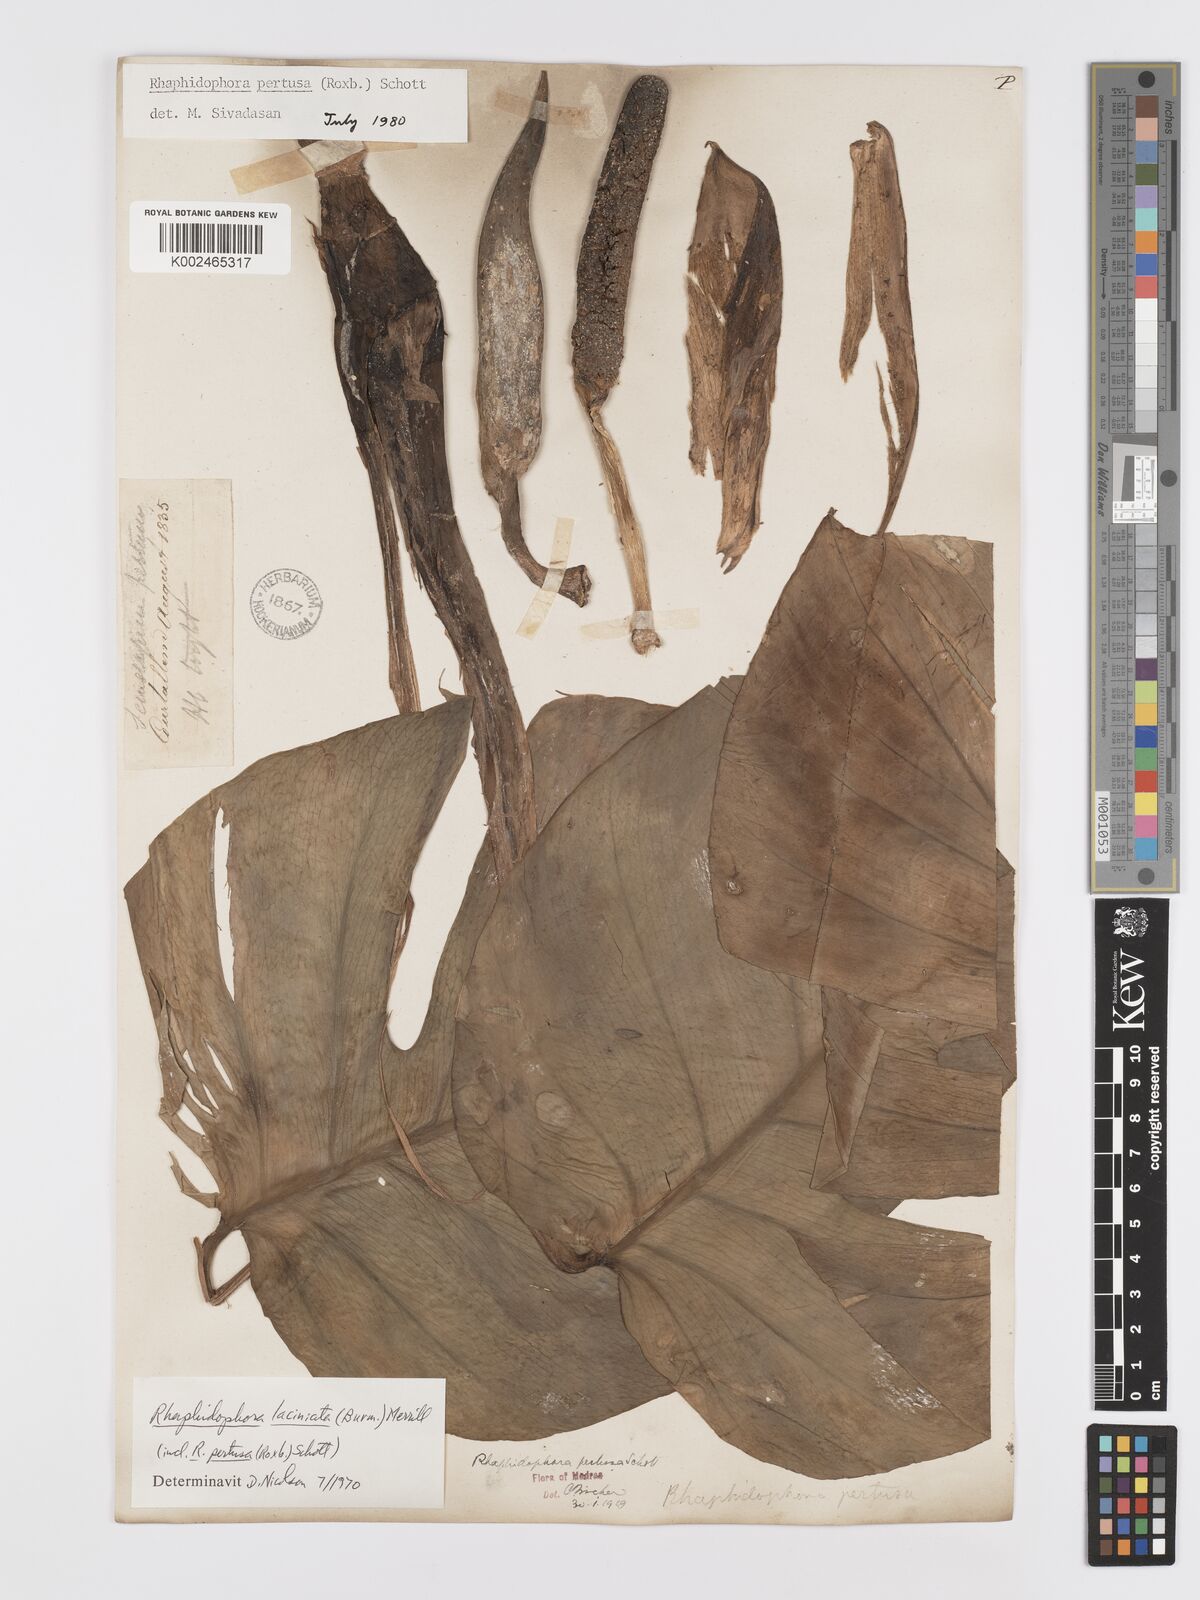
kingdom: Plantae
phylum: Tracheophyta
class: Liliopsida
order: Alismatales
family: Araceae
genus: Rhaphidophora
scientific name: Rhaphidophora pertusa
